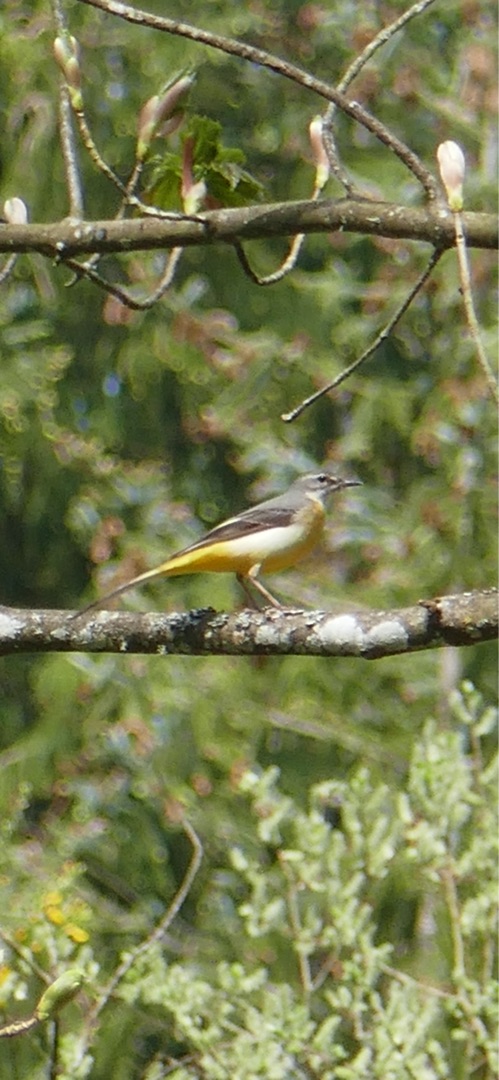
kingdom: Animalia
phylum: Chordata
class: Aves
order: Passeriformes
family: Motacillidae
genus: Motacilla
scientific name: Motacilla cinerea
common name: Bjergvipstjert
